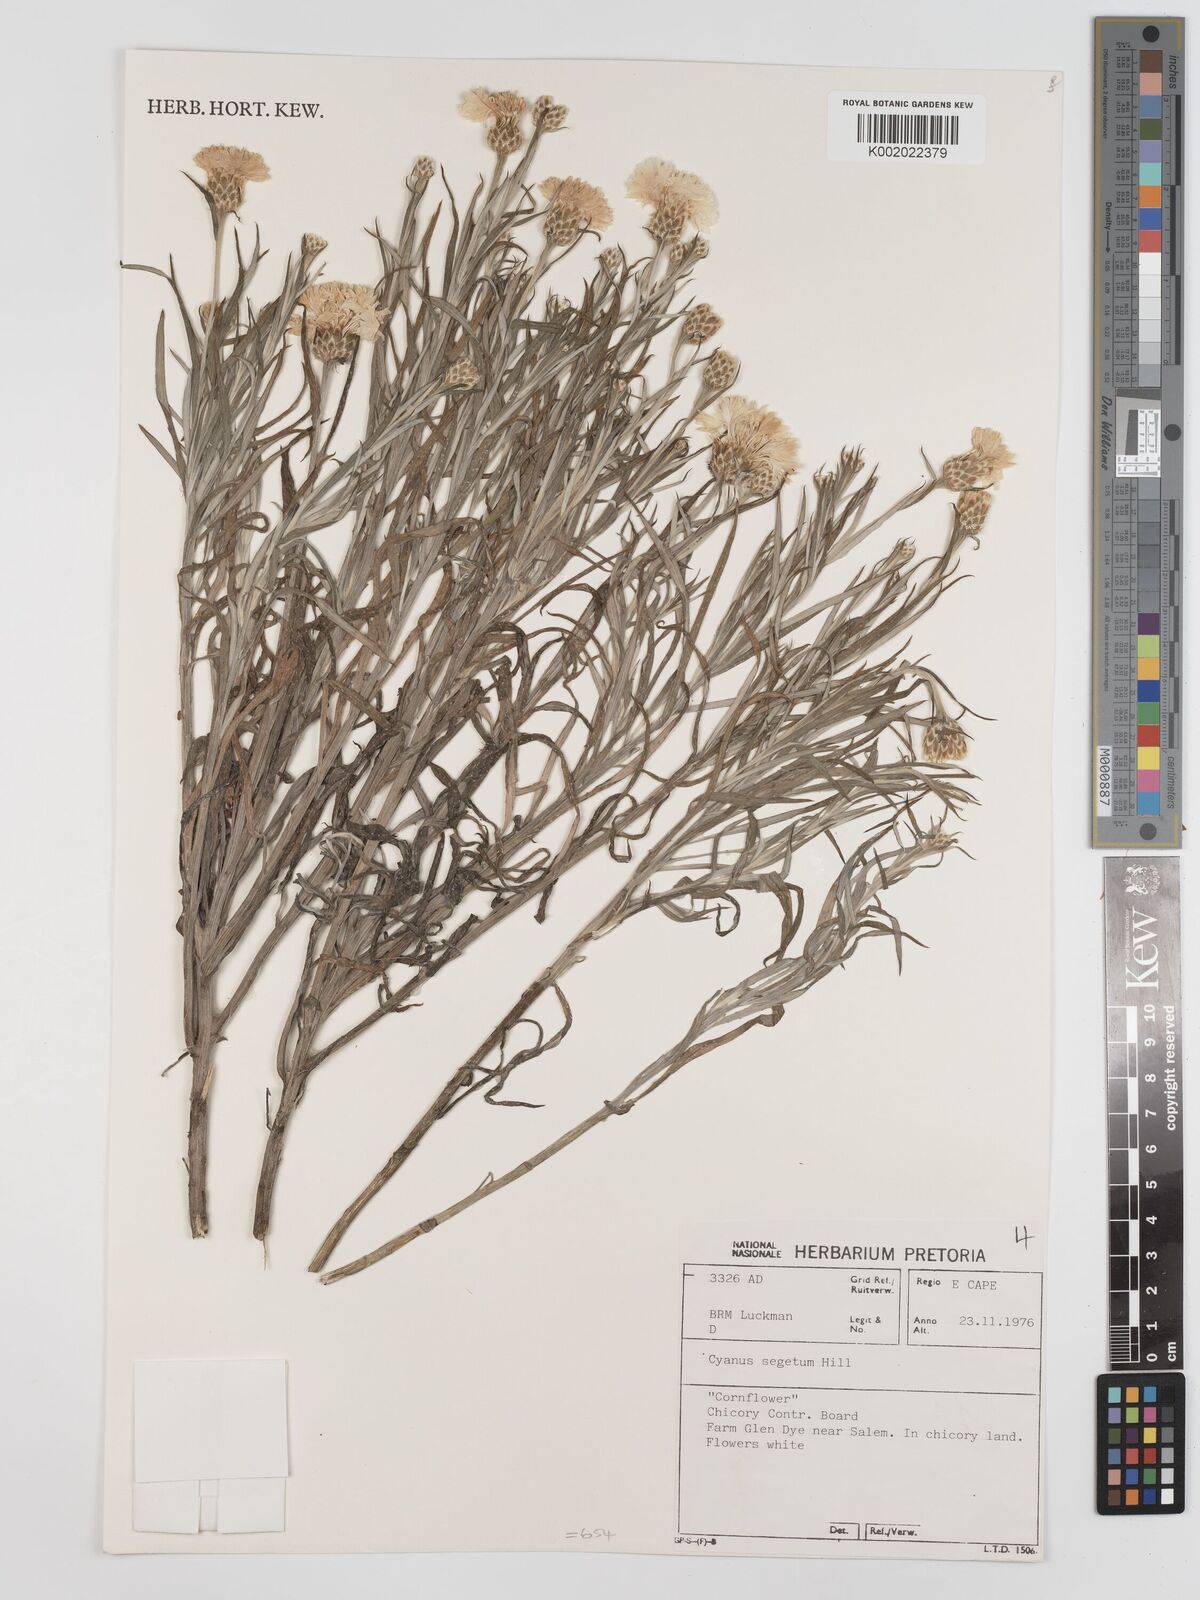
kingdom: Plantae
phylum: Tracheophyta
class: Magnoliopsida
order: Asterales
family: Asteraceae
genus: Centaurea
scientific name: Centaurea
